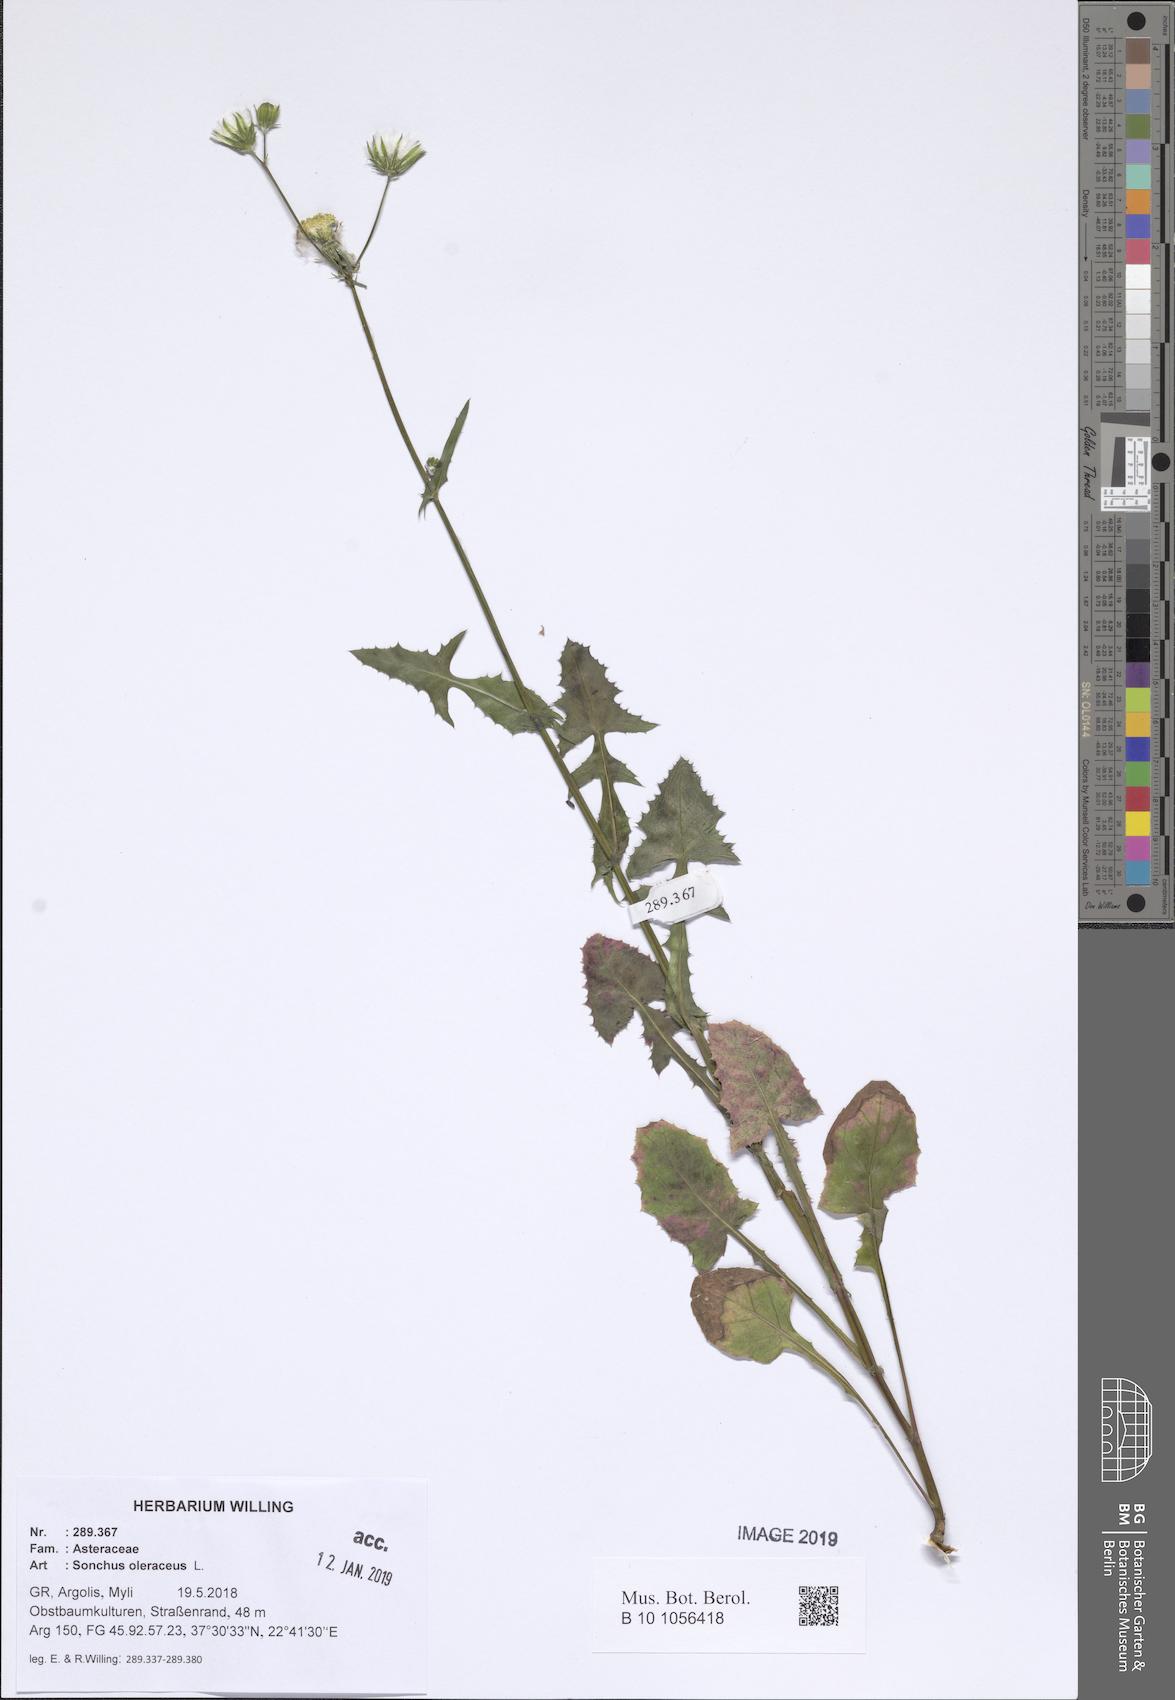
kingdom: Plantae
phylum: Tracheophyta
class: Magnoliopsida
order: Asterales
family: Asteraceae
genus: Sonchus
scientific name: Sonchus oleraceus
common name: Common sowthistle
